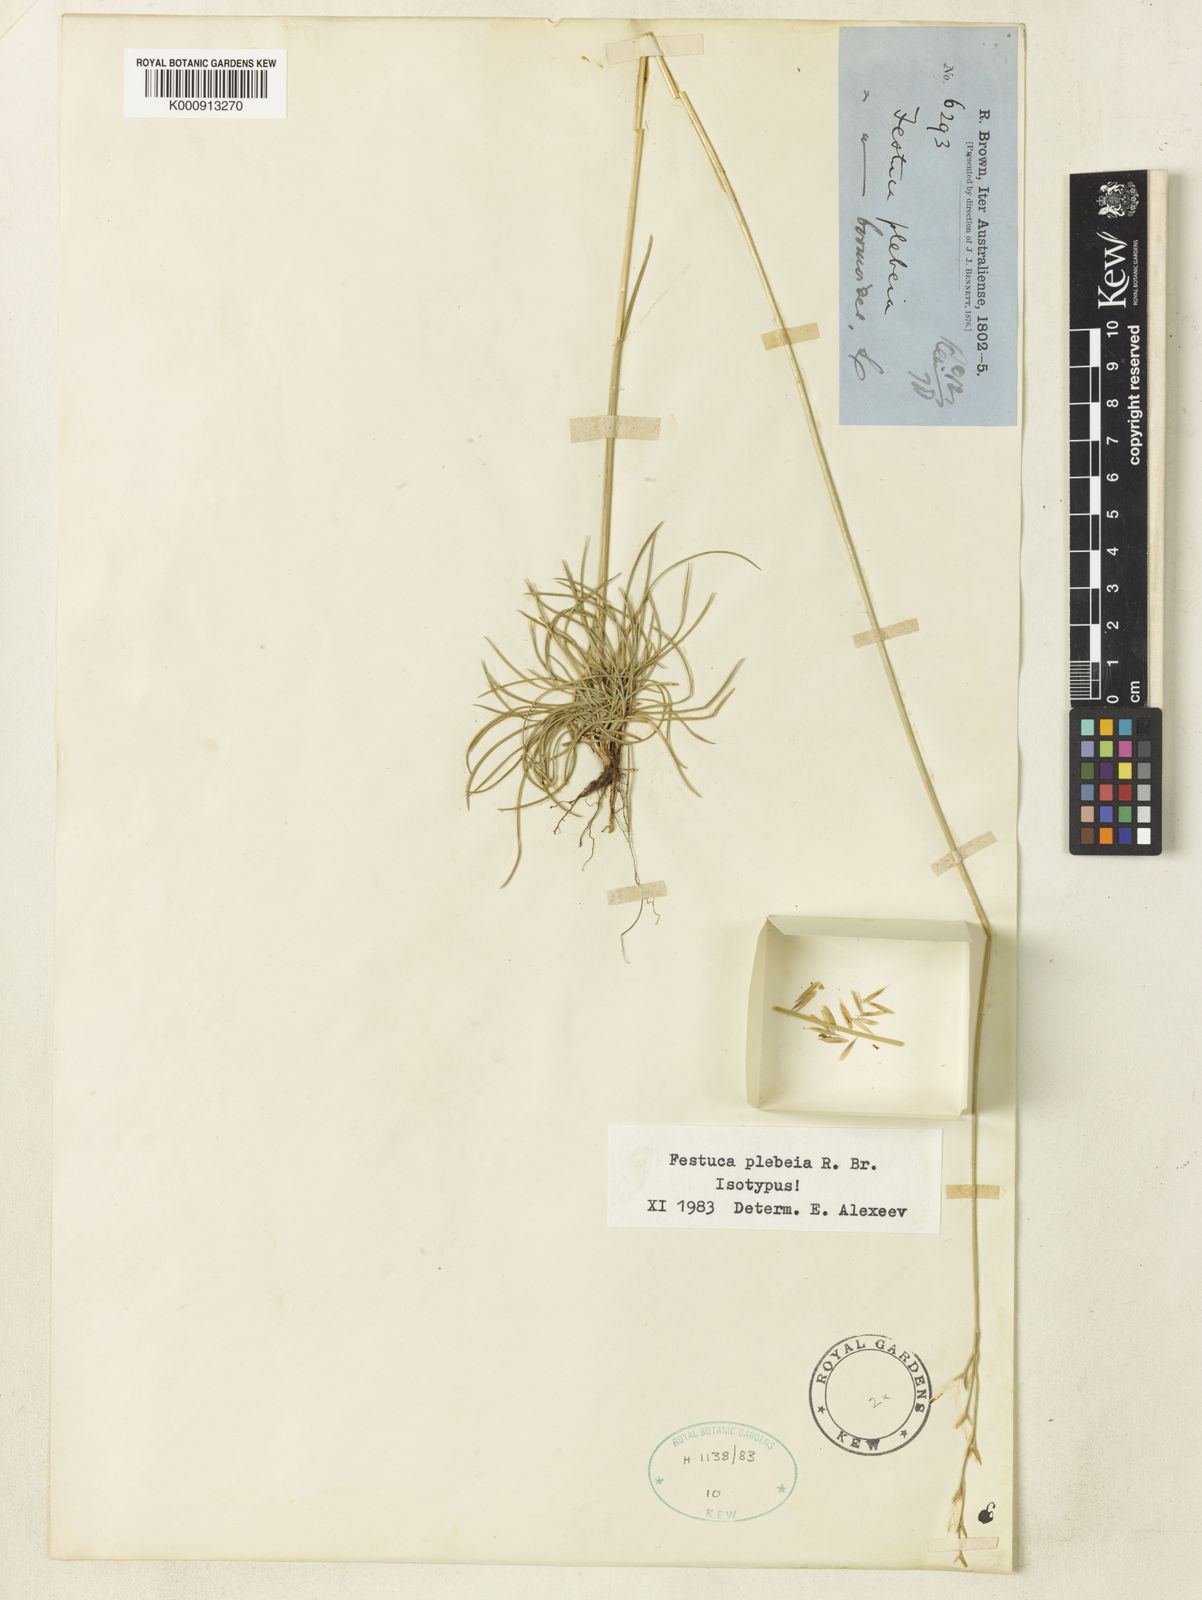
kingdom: Plantae
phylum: Tracheophyta
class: Liliopsida
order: Poales
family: Poaceae
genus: Festuca
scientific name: Festuca
